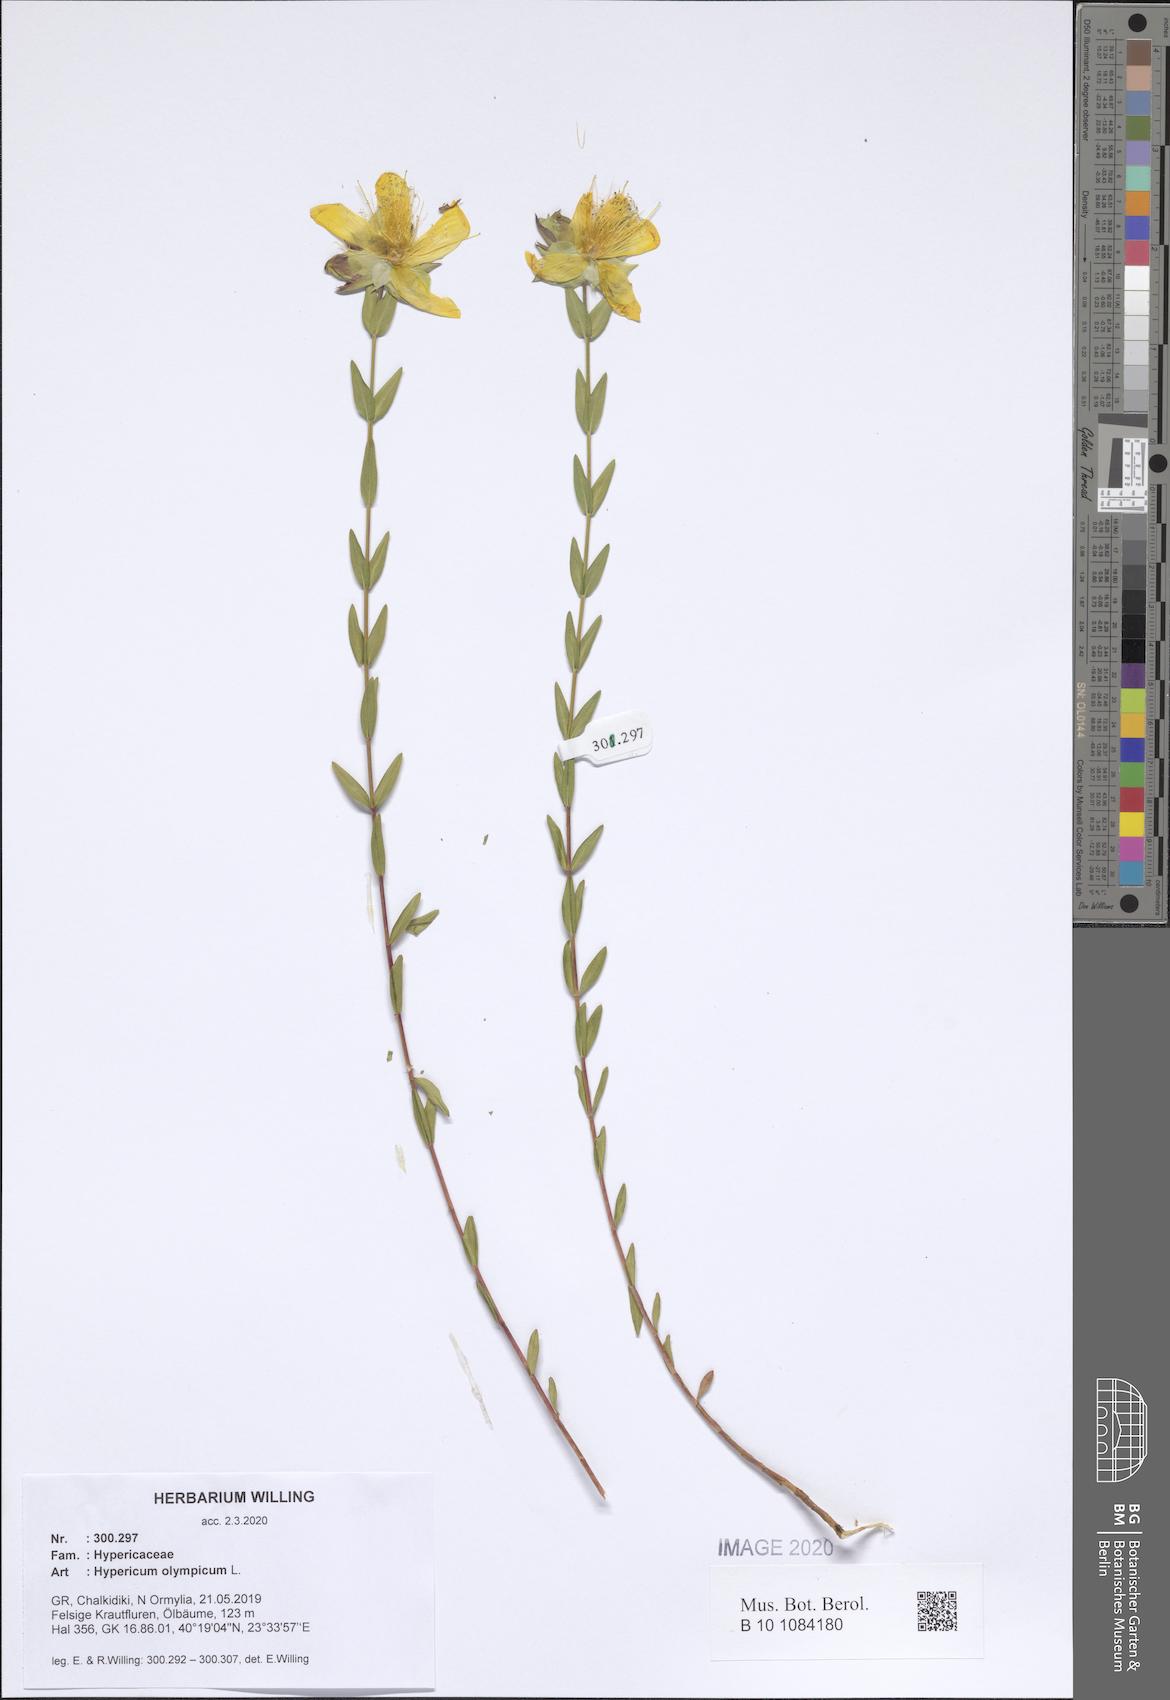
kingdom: Plantae
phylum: Tracheophyta
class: Magnoliopsida
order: Malpighiales
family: Hypericaceae
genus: Hypericum
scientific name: Hypericum olympicum
